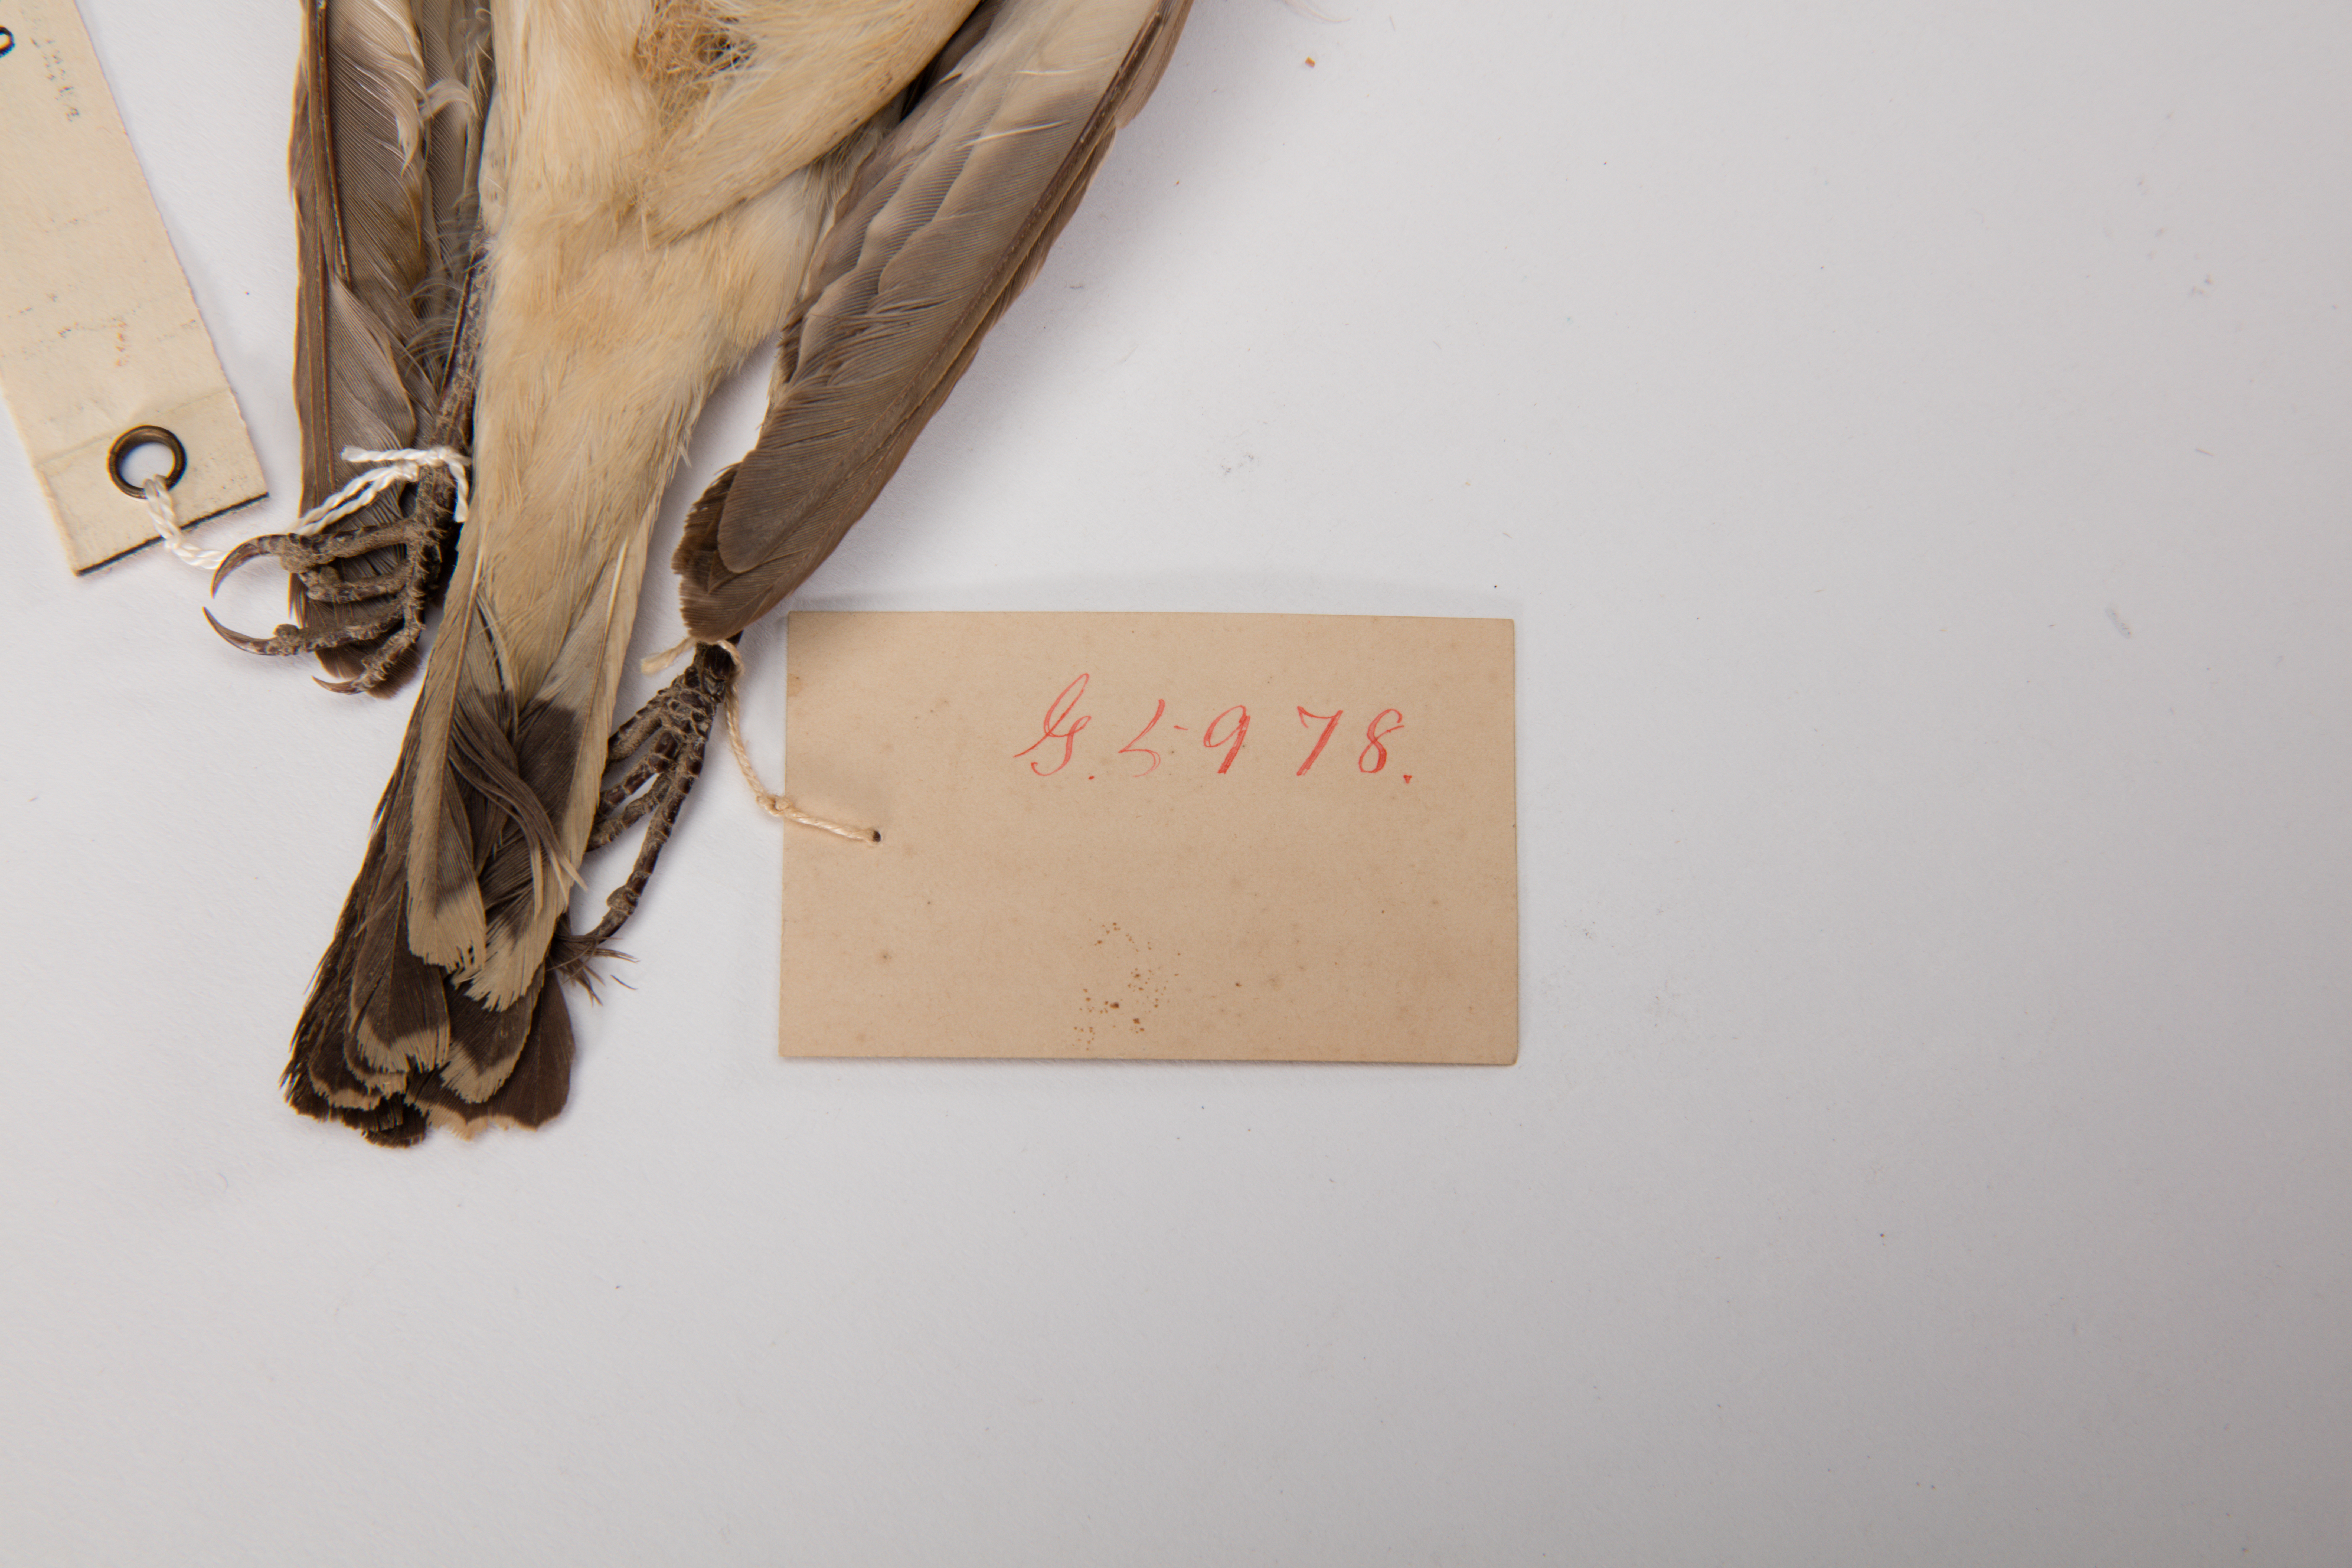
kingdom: Animalia
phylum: Chordata
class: Aves
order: Passeriformes
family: Laniidae
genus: Lanius
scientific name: Lanius senator
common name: Woodchat shrike
